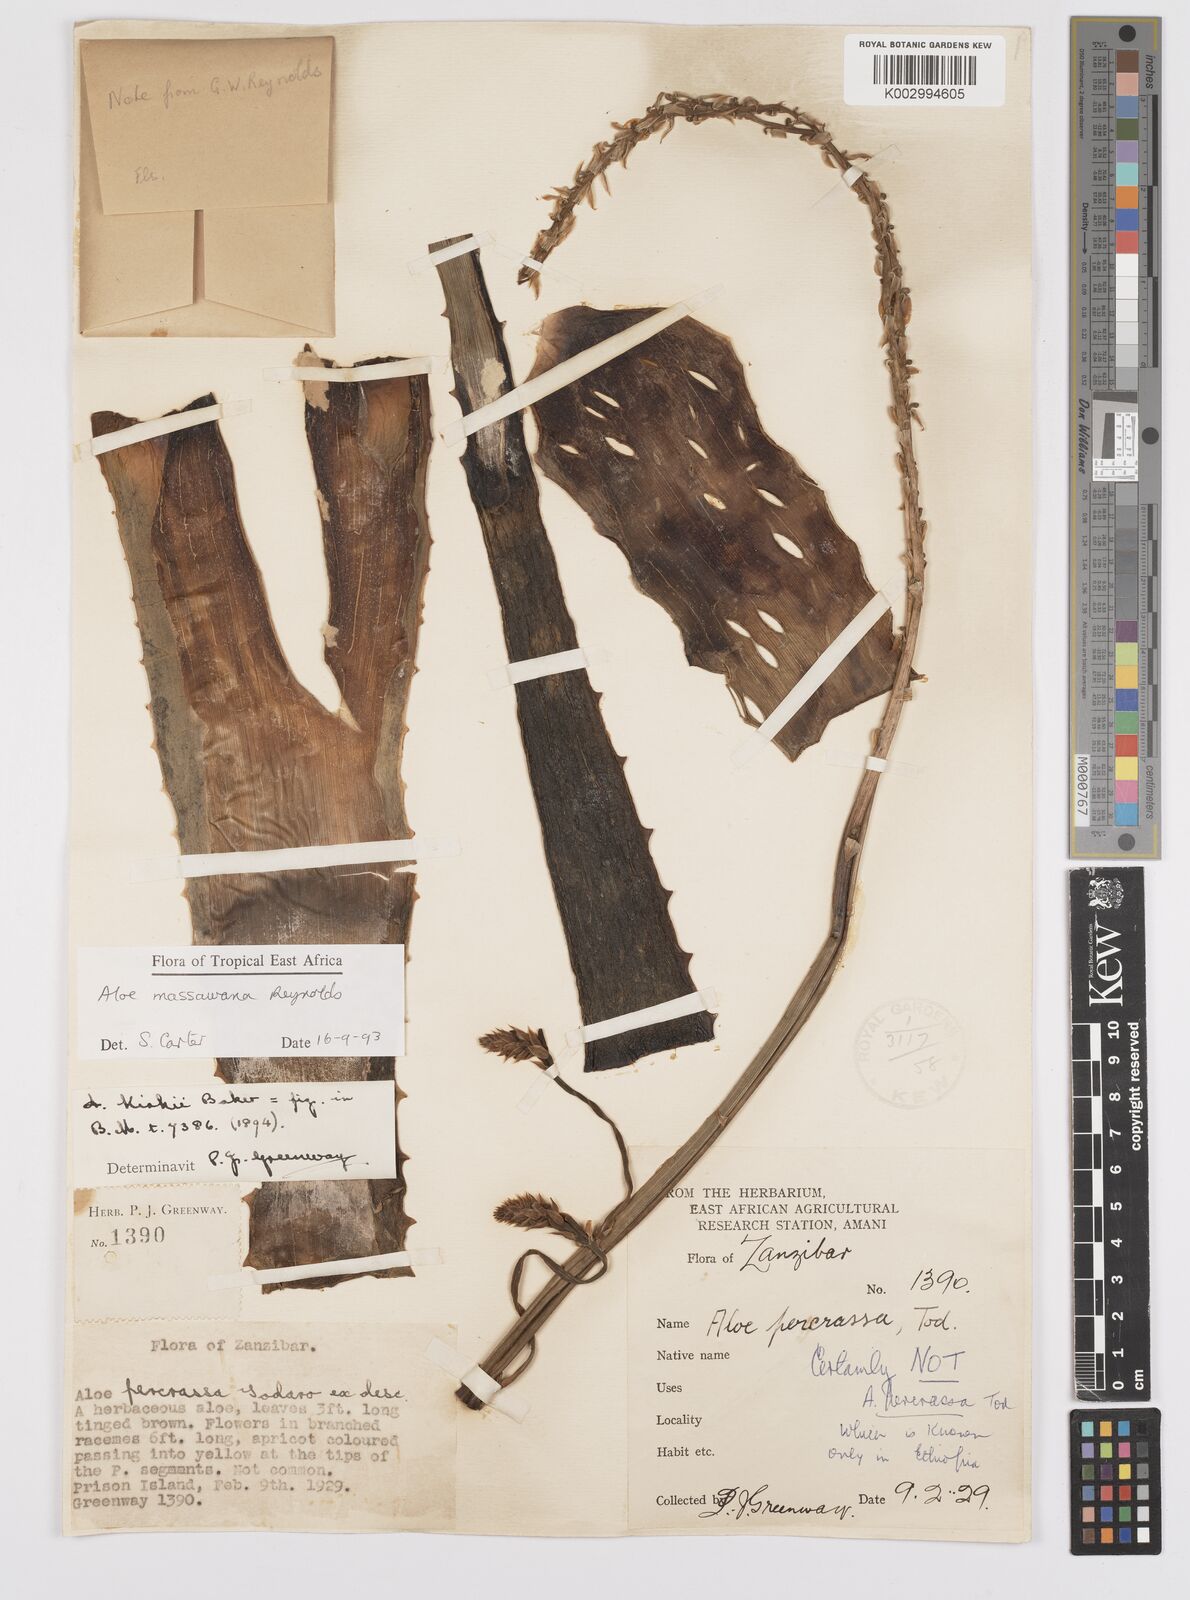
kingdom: Plantae
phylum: Tracheophyta
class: Liliopsida
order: Asparagales
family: Asphodelaceae
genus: Aloe
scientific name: Aloe massawana
